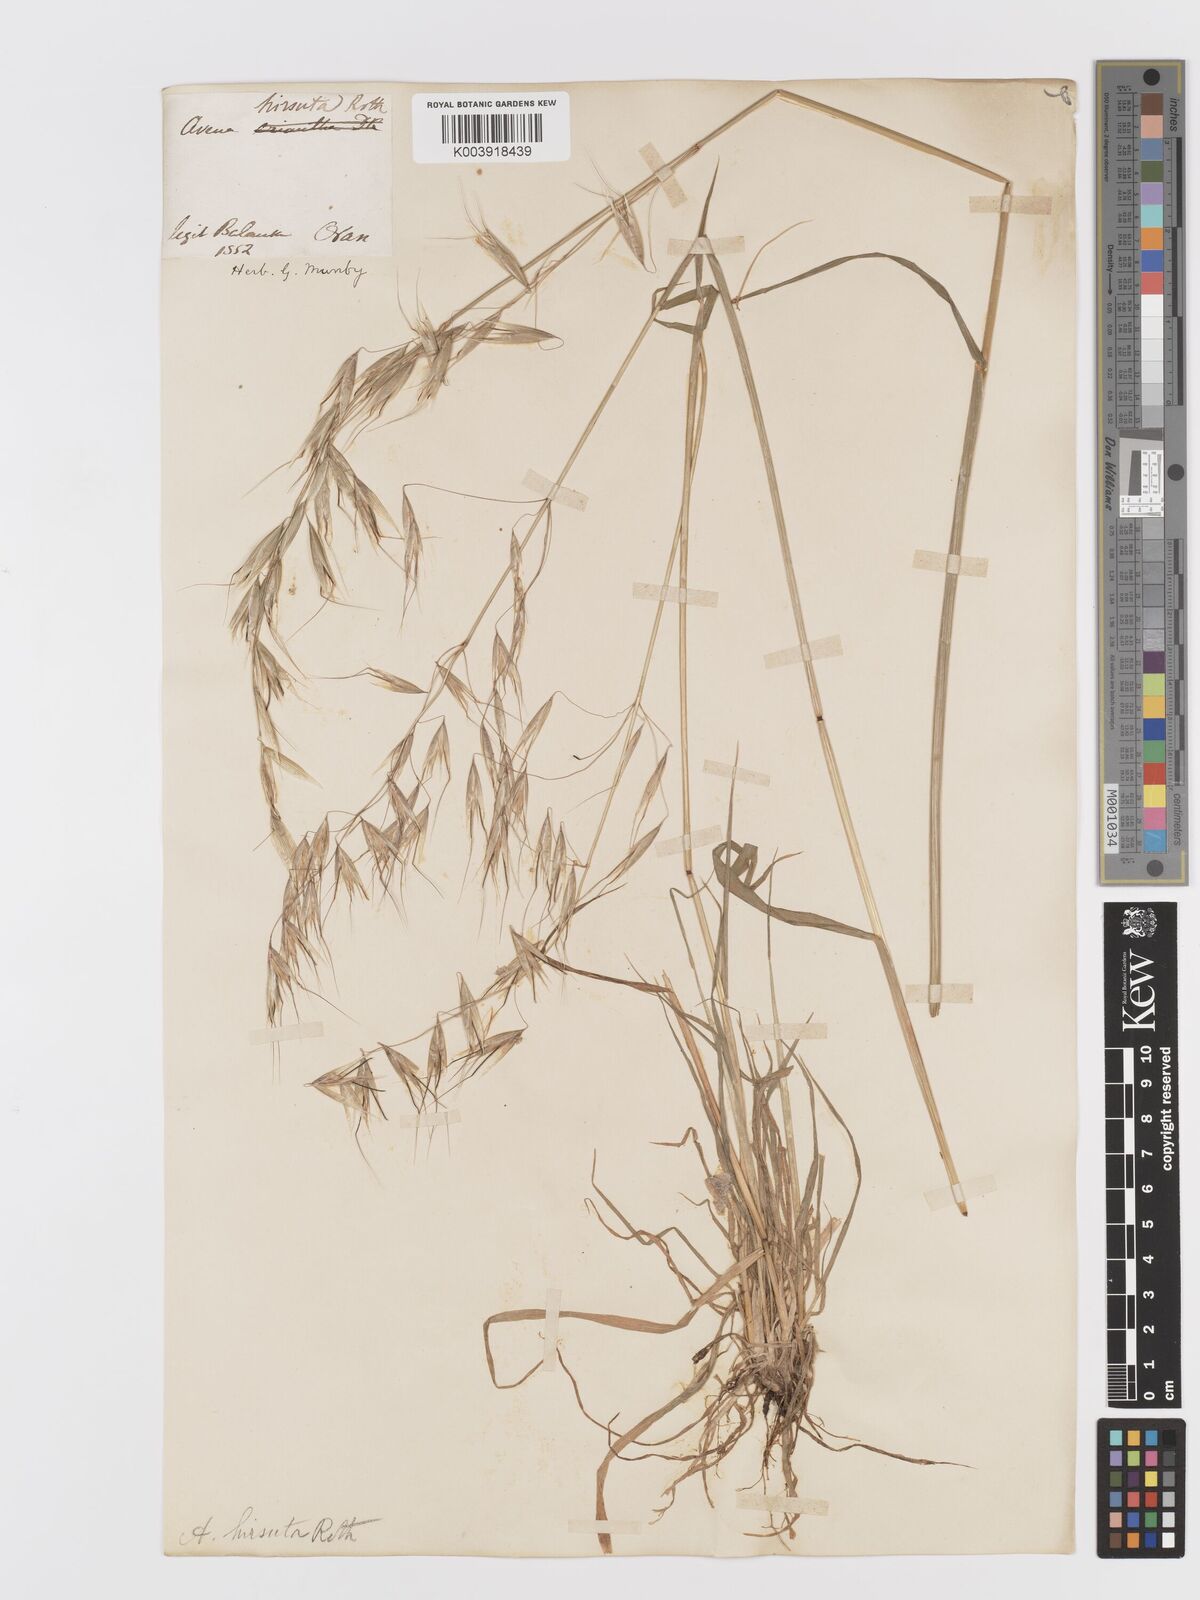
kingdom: Plantae
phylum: Tracheophyta
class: Liliopsida
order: Poales
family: Poaceae
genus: Avena
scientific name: Avena
